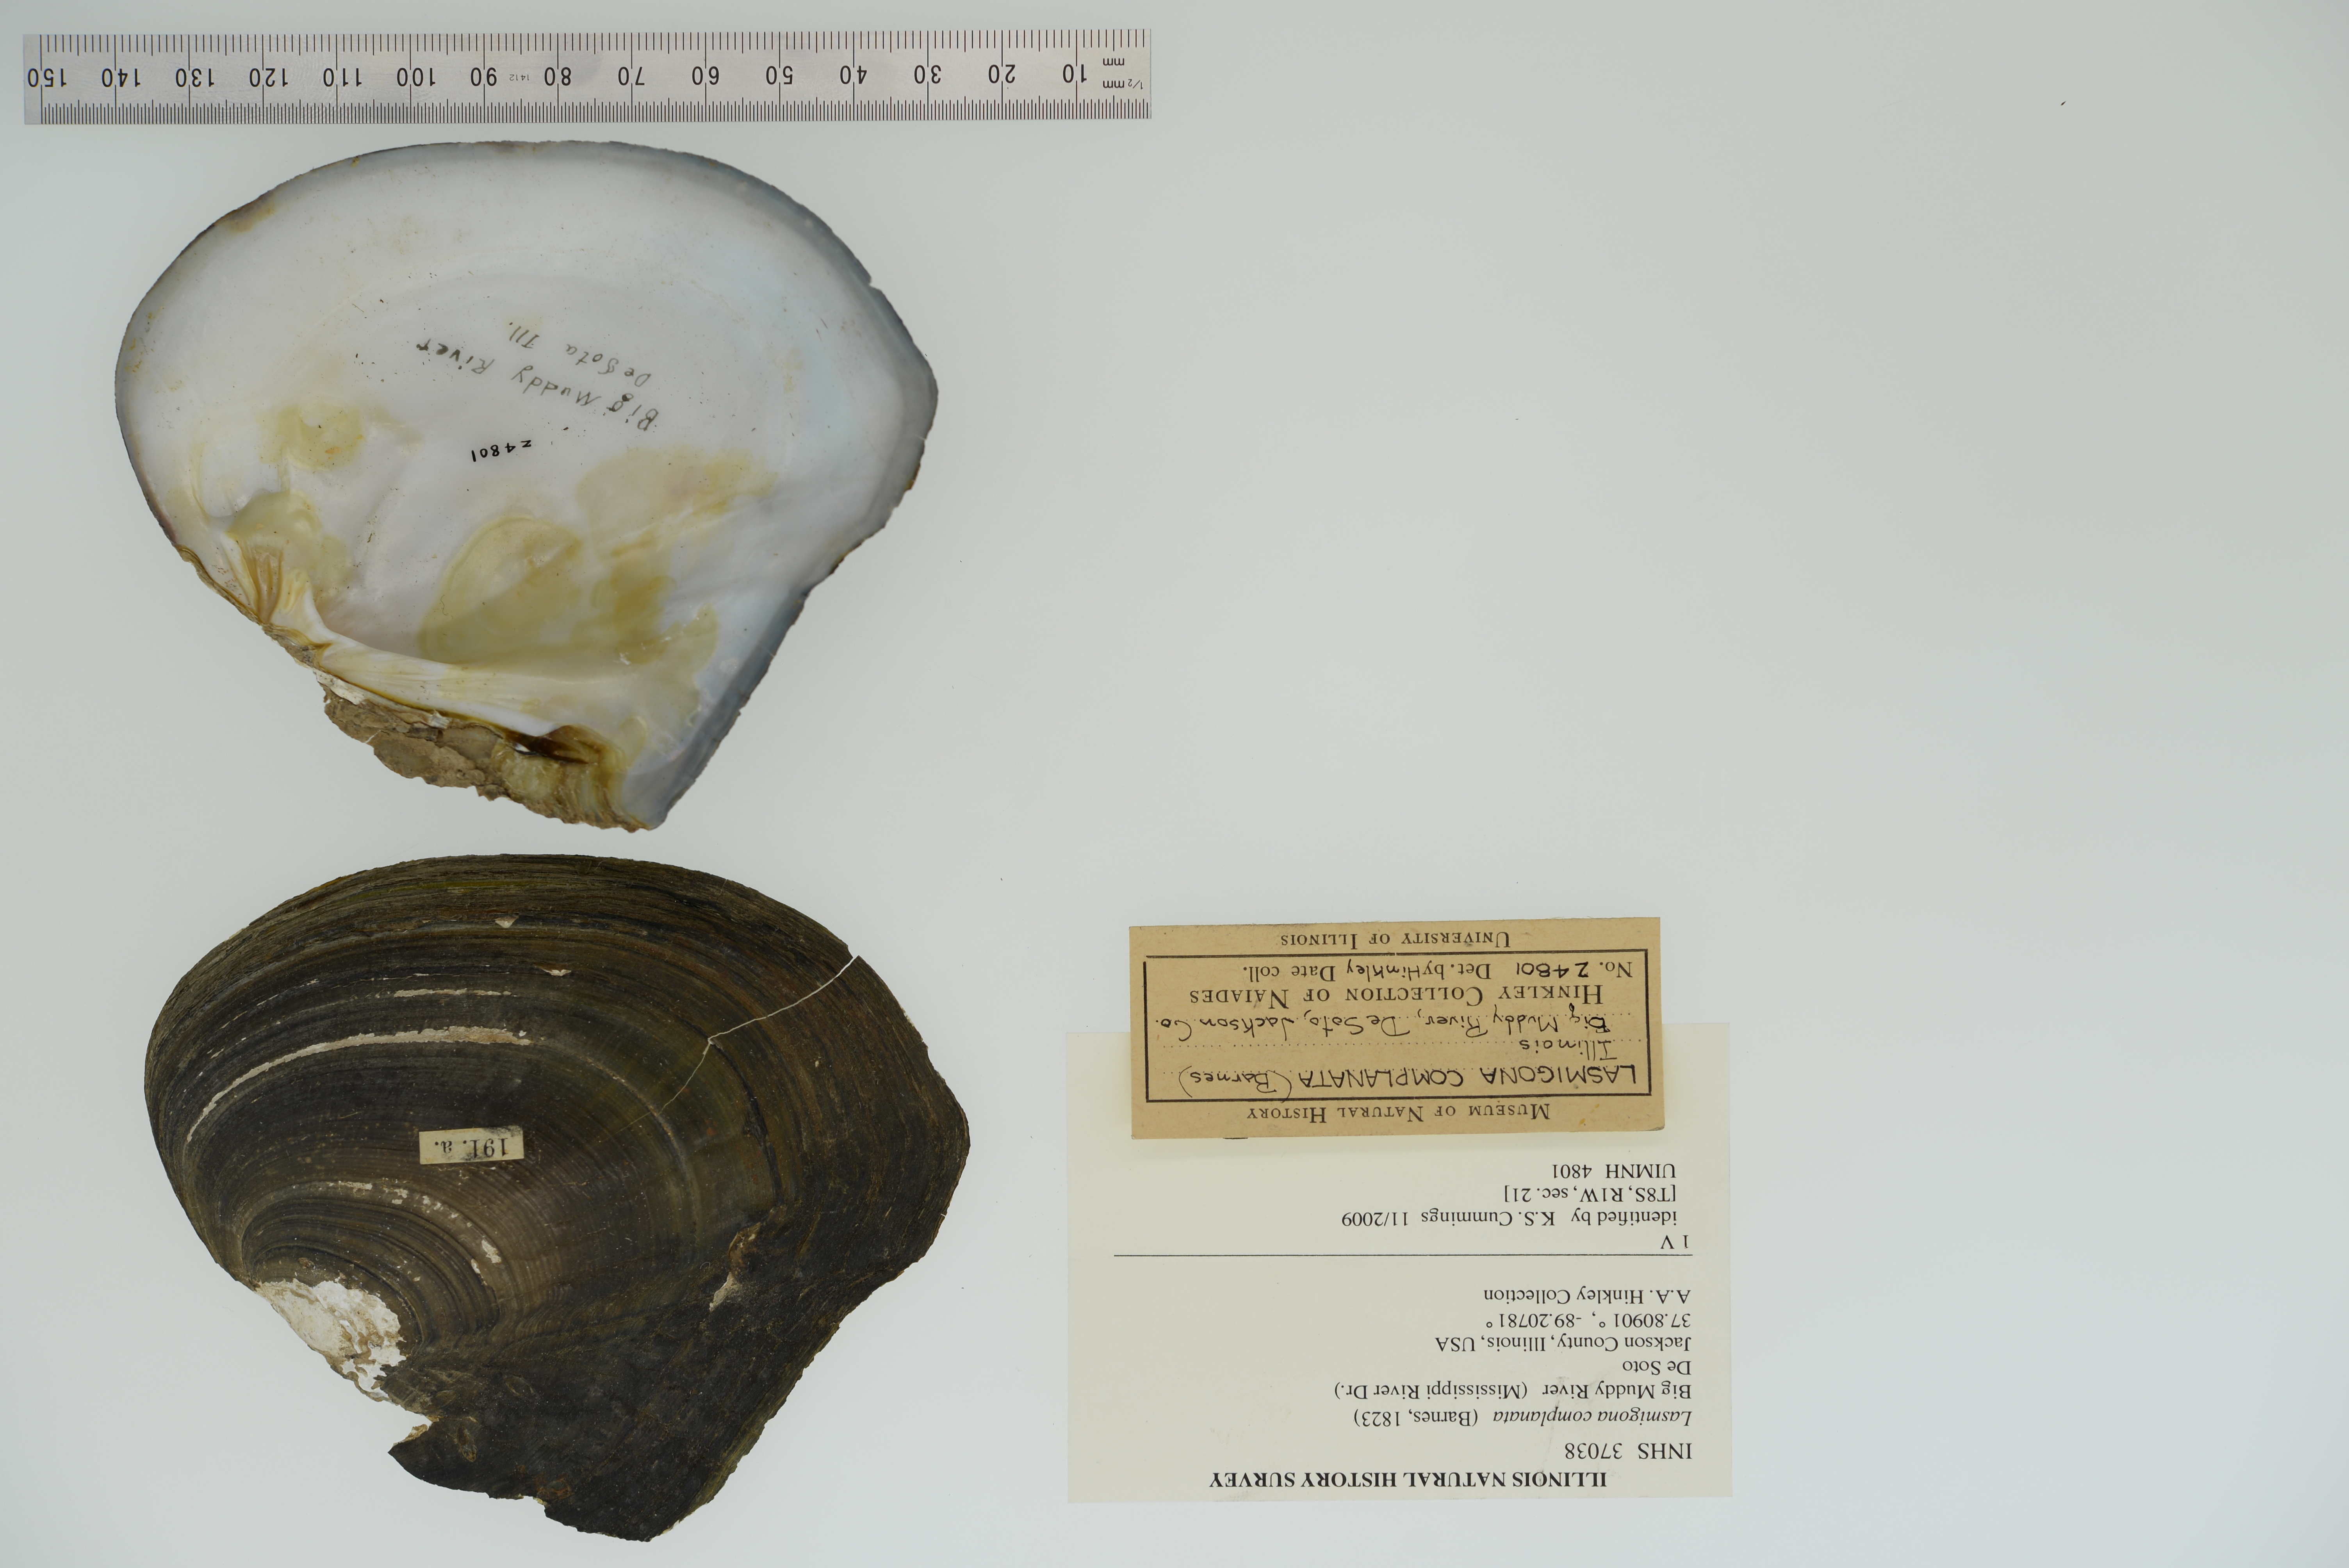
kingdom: Animalia
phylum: Mollusca
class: Bivalvia
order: Unionida
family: Unionidae
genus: Lasmigona
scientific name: Lasmigona complanata
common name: White heelsplitter
